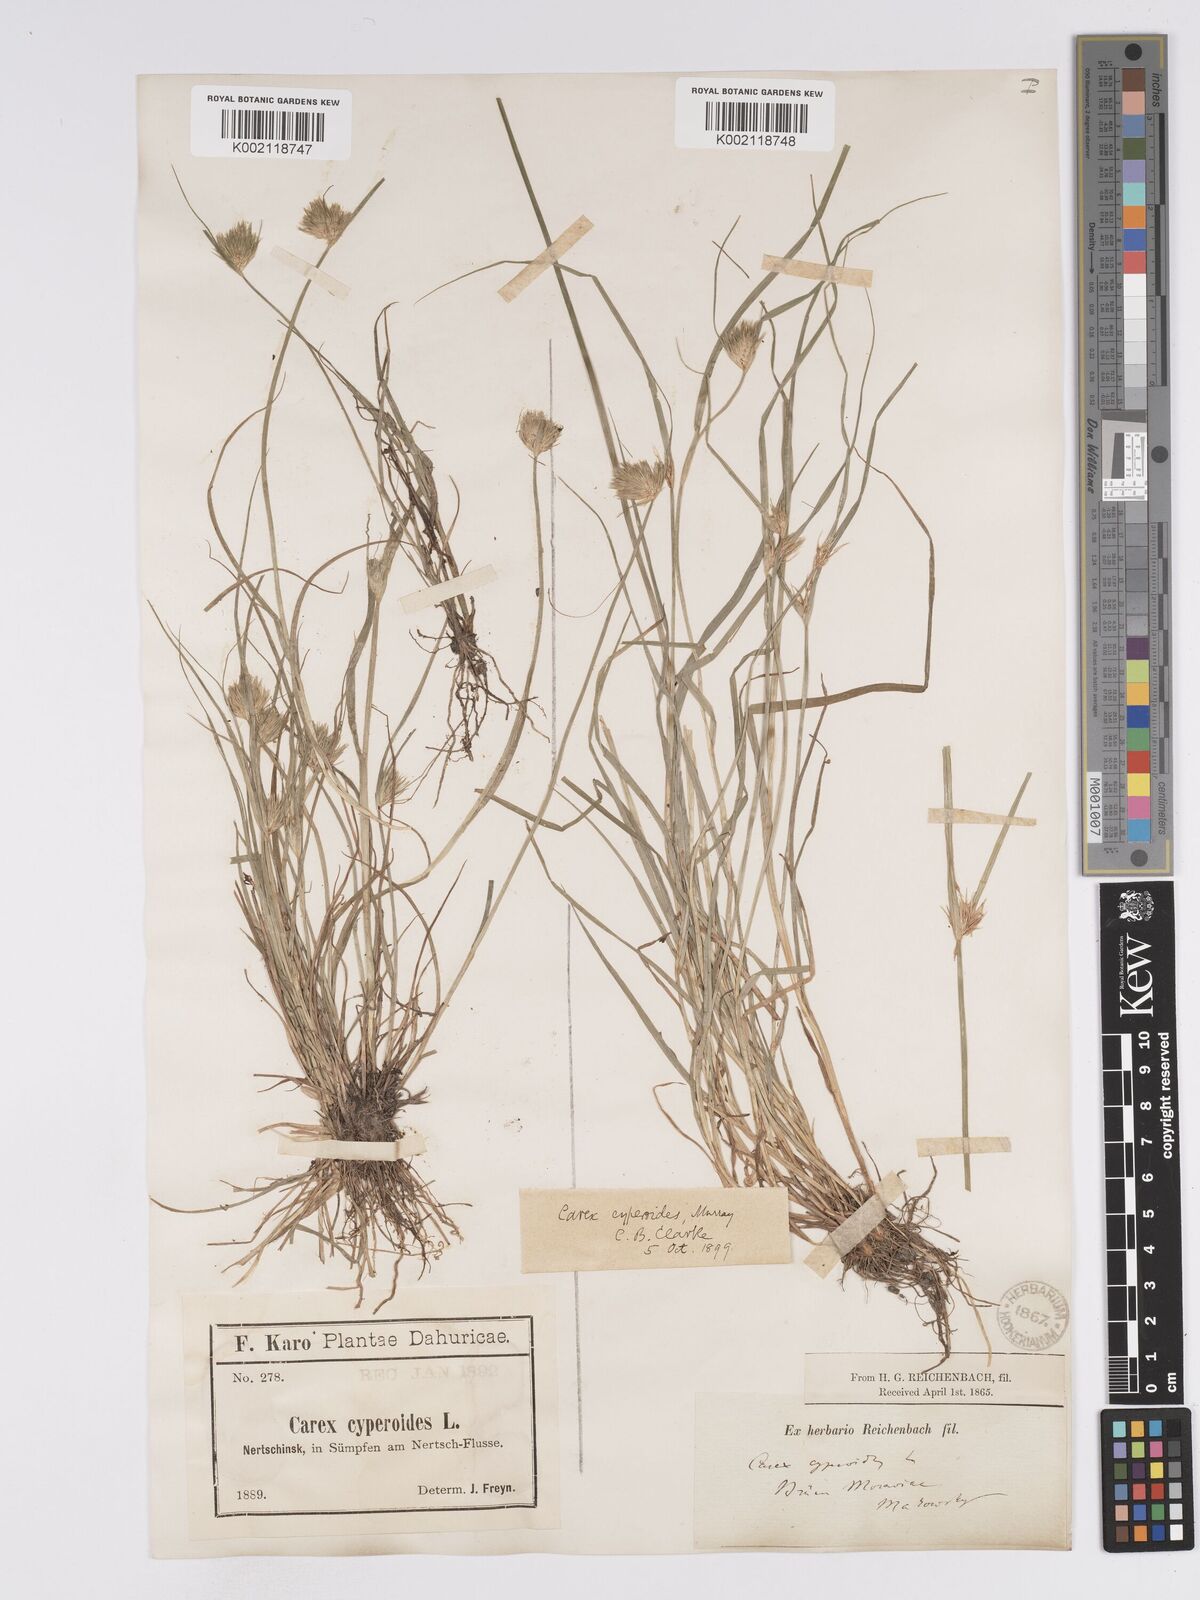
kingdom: Plantae
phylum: Tracheophyta
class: Liliopsida
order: Poales
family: Cyperaceae
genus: Carex
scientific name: Carex bohemica
